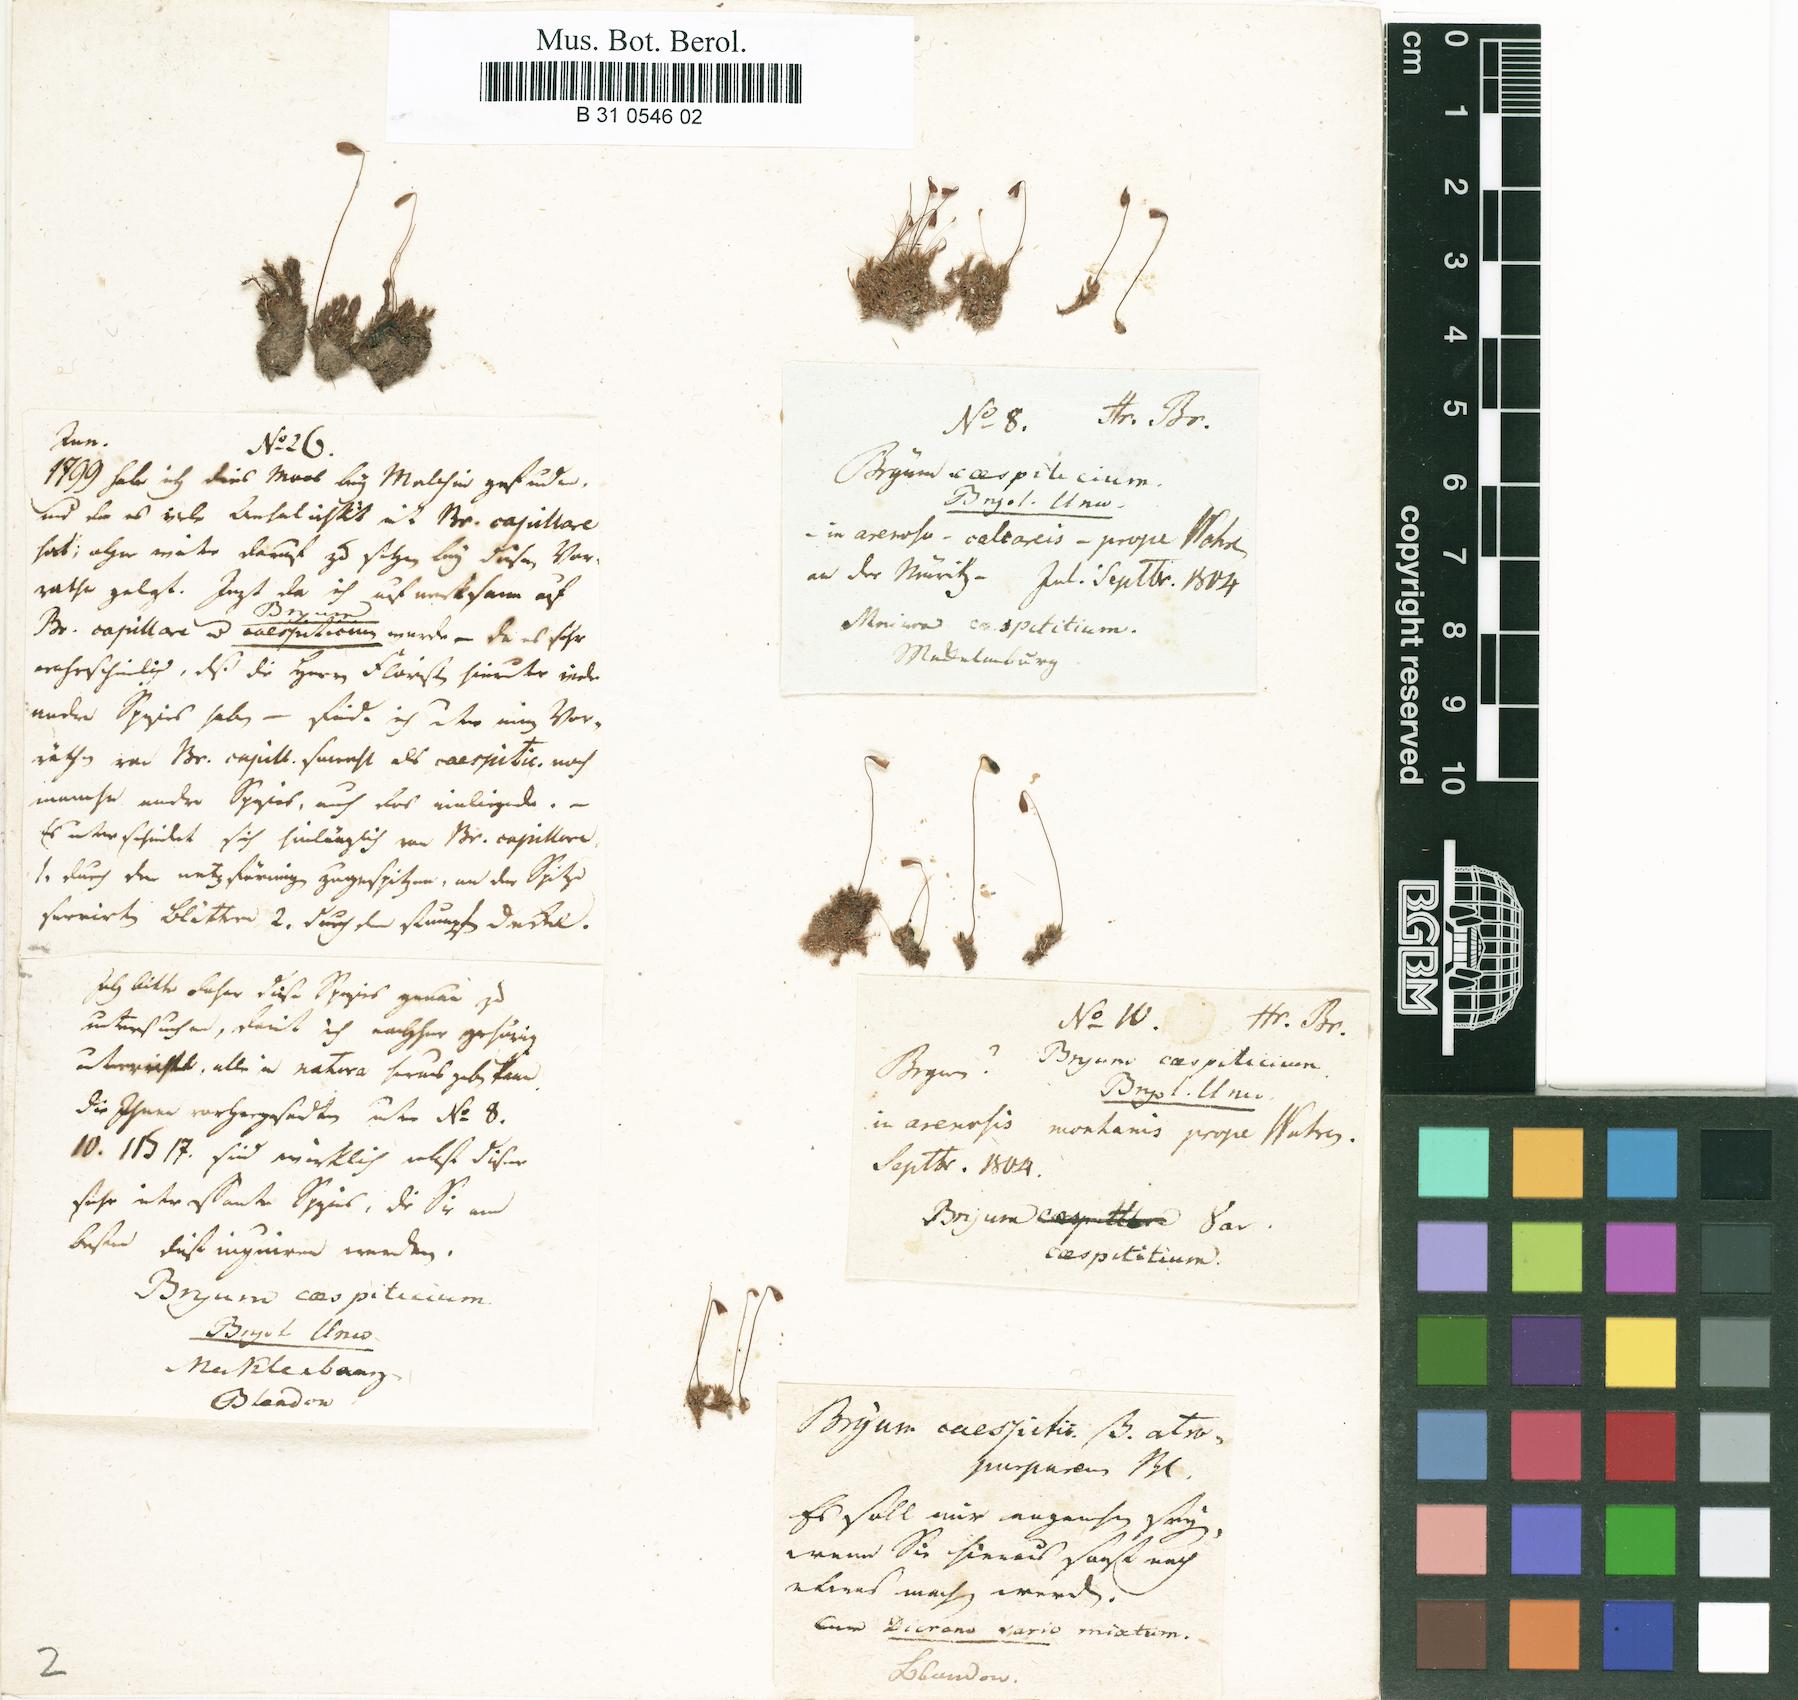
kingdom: Plantae
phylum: Bryophyta
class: Bryopsida
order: Bryales
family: Bryaceae
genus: Gemmabryum
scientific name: Gemmabryum caespiticium
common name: Handbell moss
